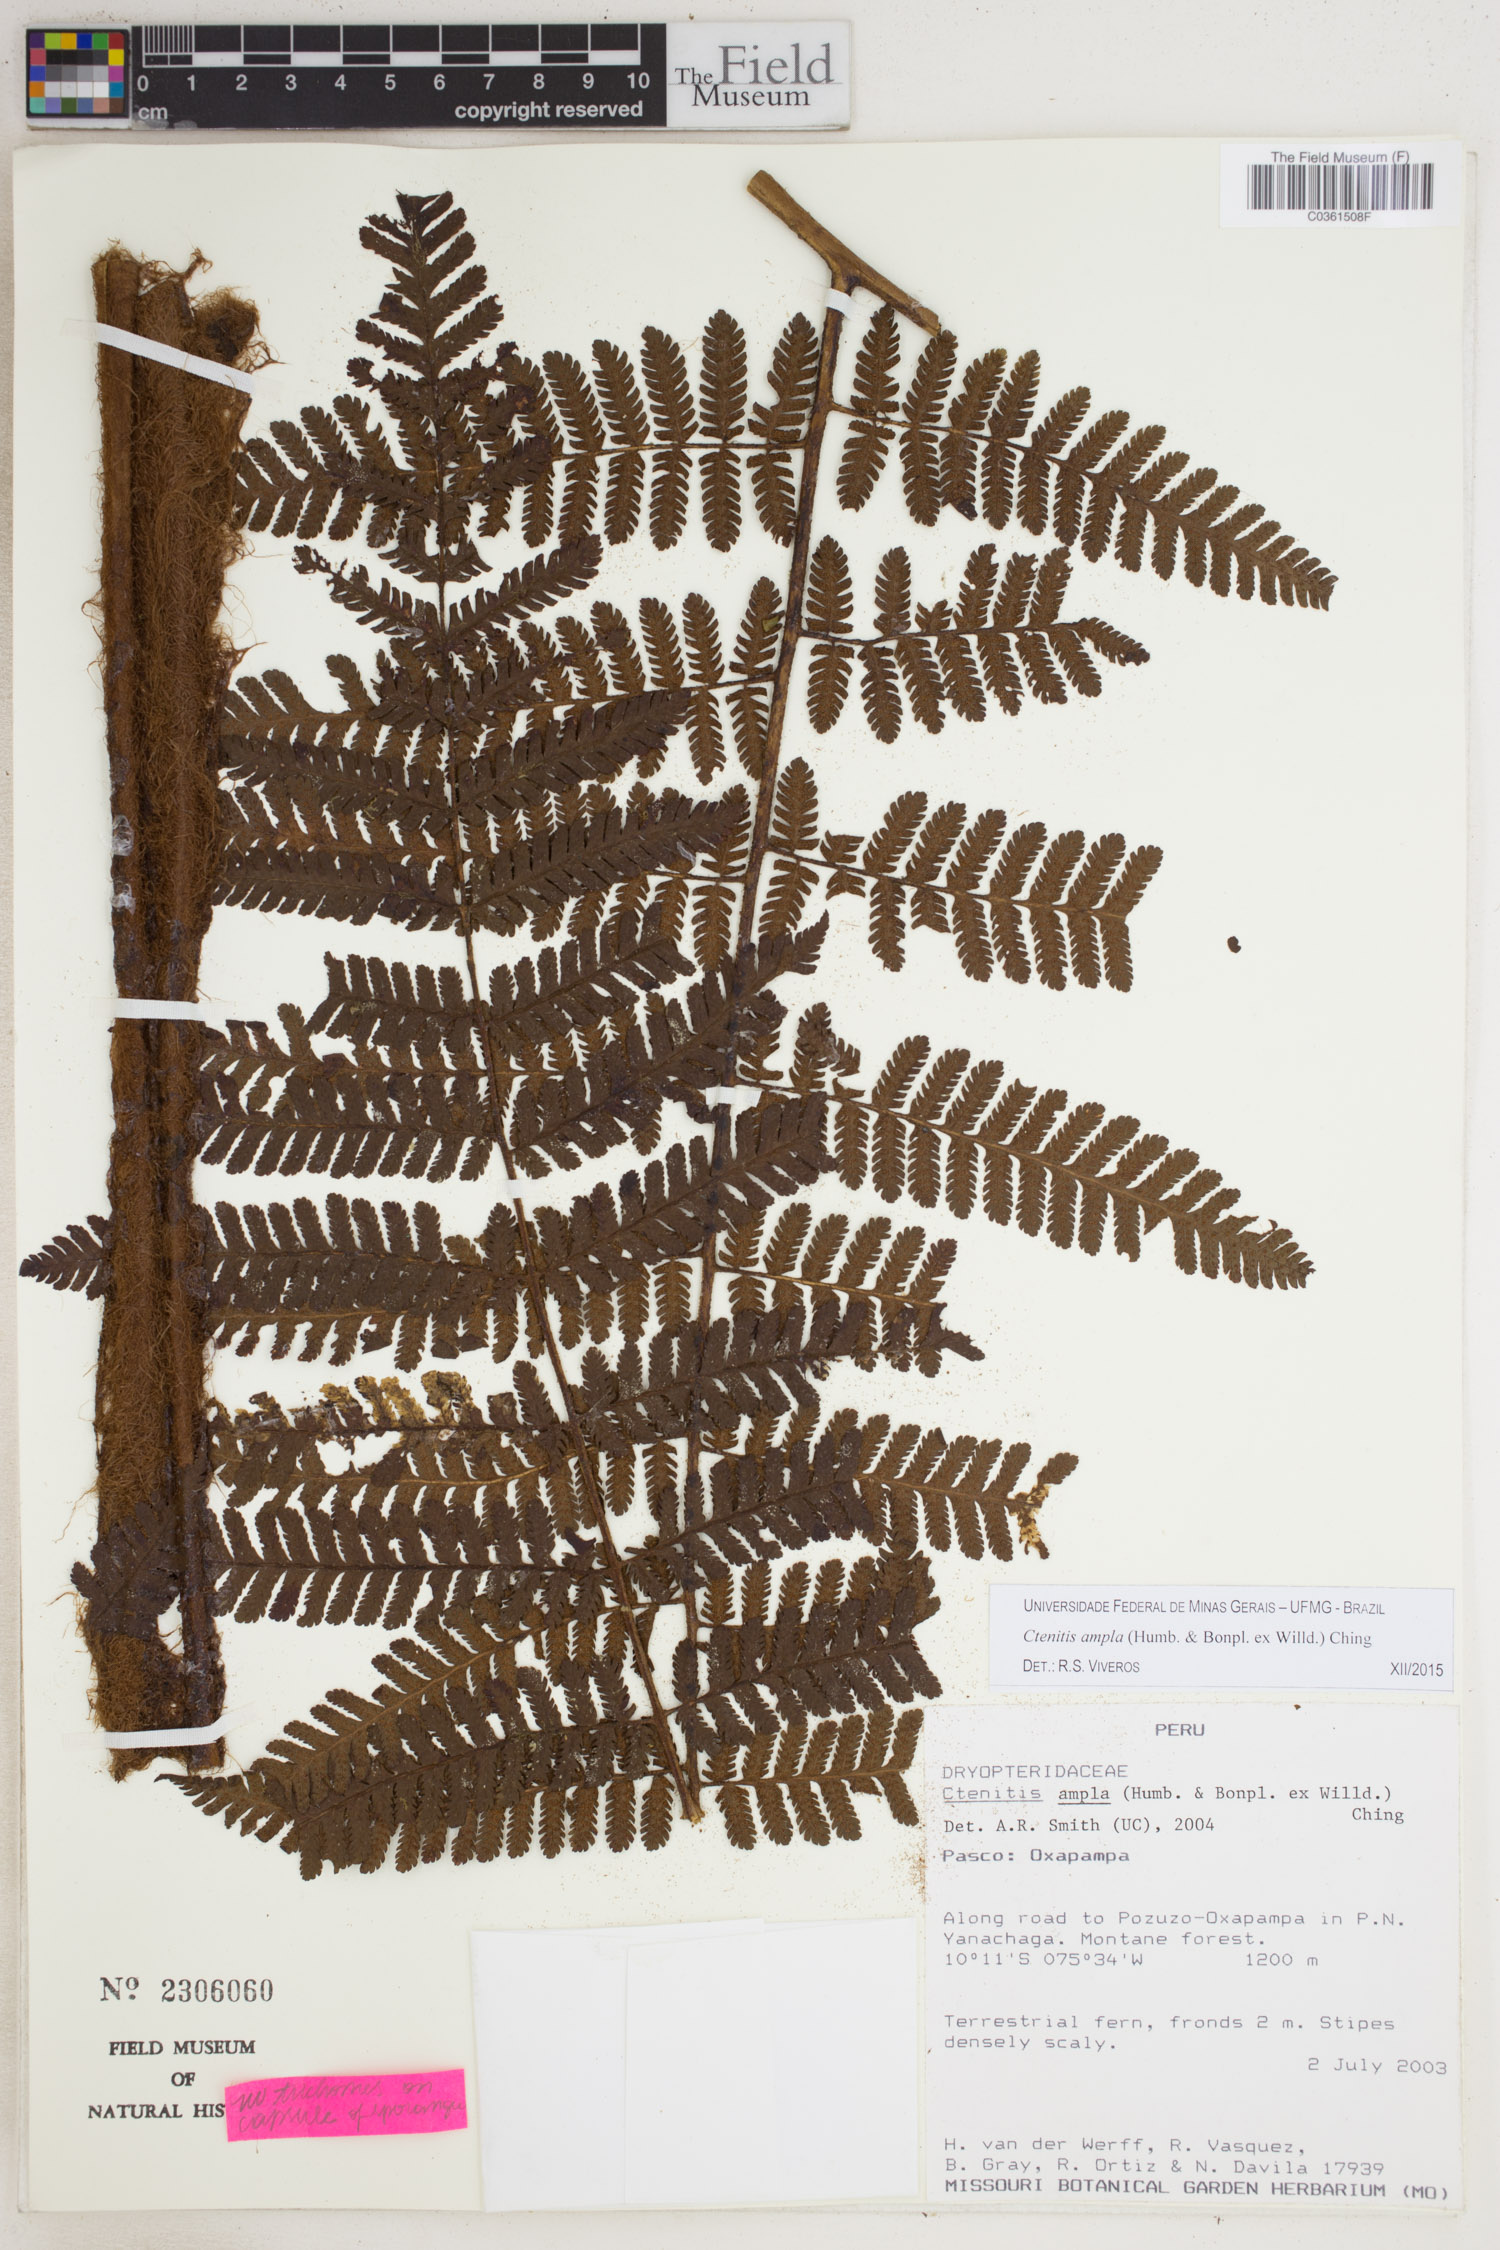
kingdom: Plantae
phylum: Tracheophyta
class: Polypodiopsida
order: Polypodiales
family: Dryopteridaceae
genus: Ctenitis
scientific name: Ctenitis sloanei
